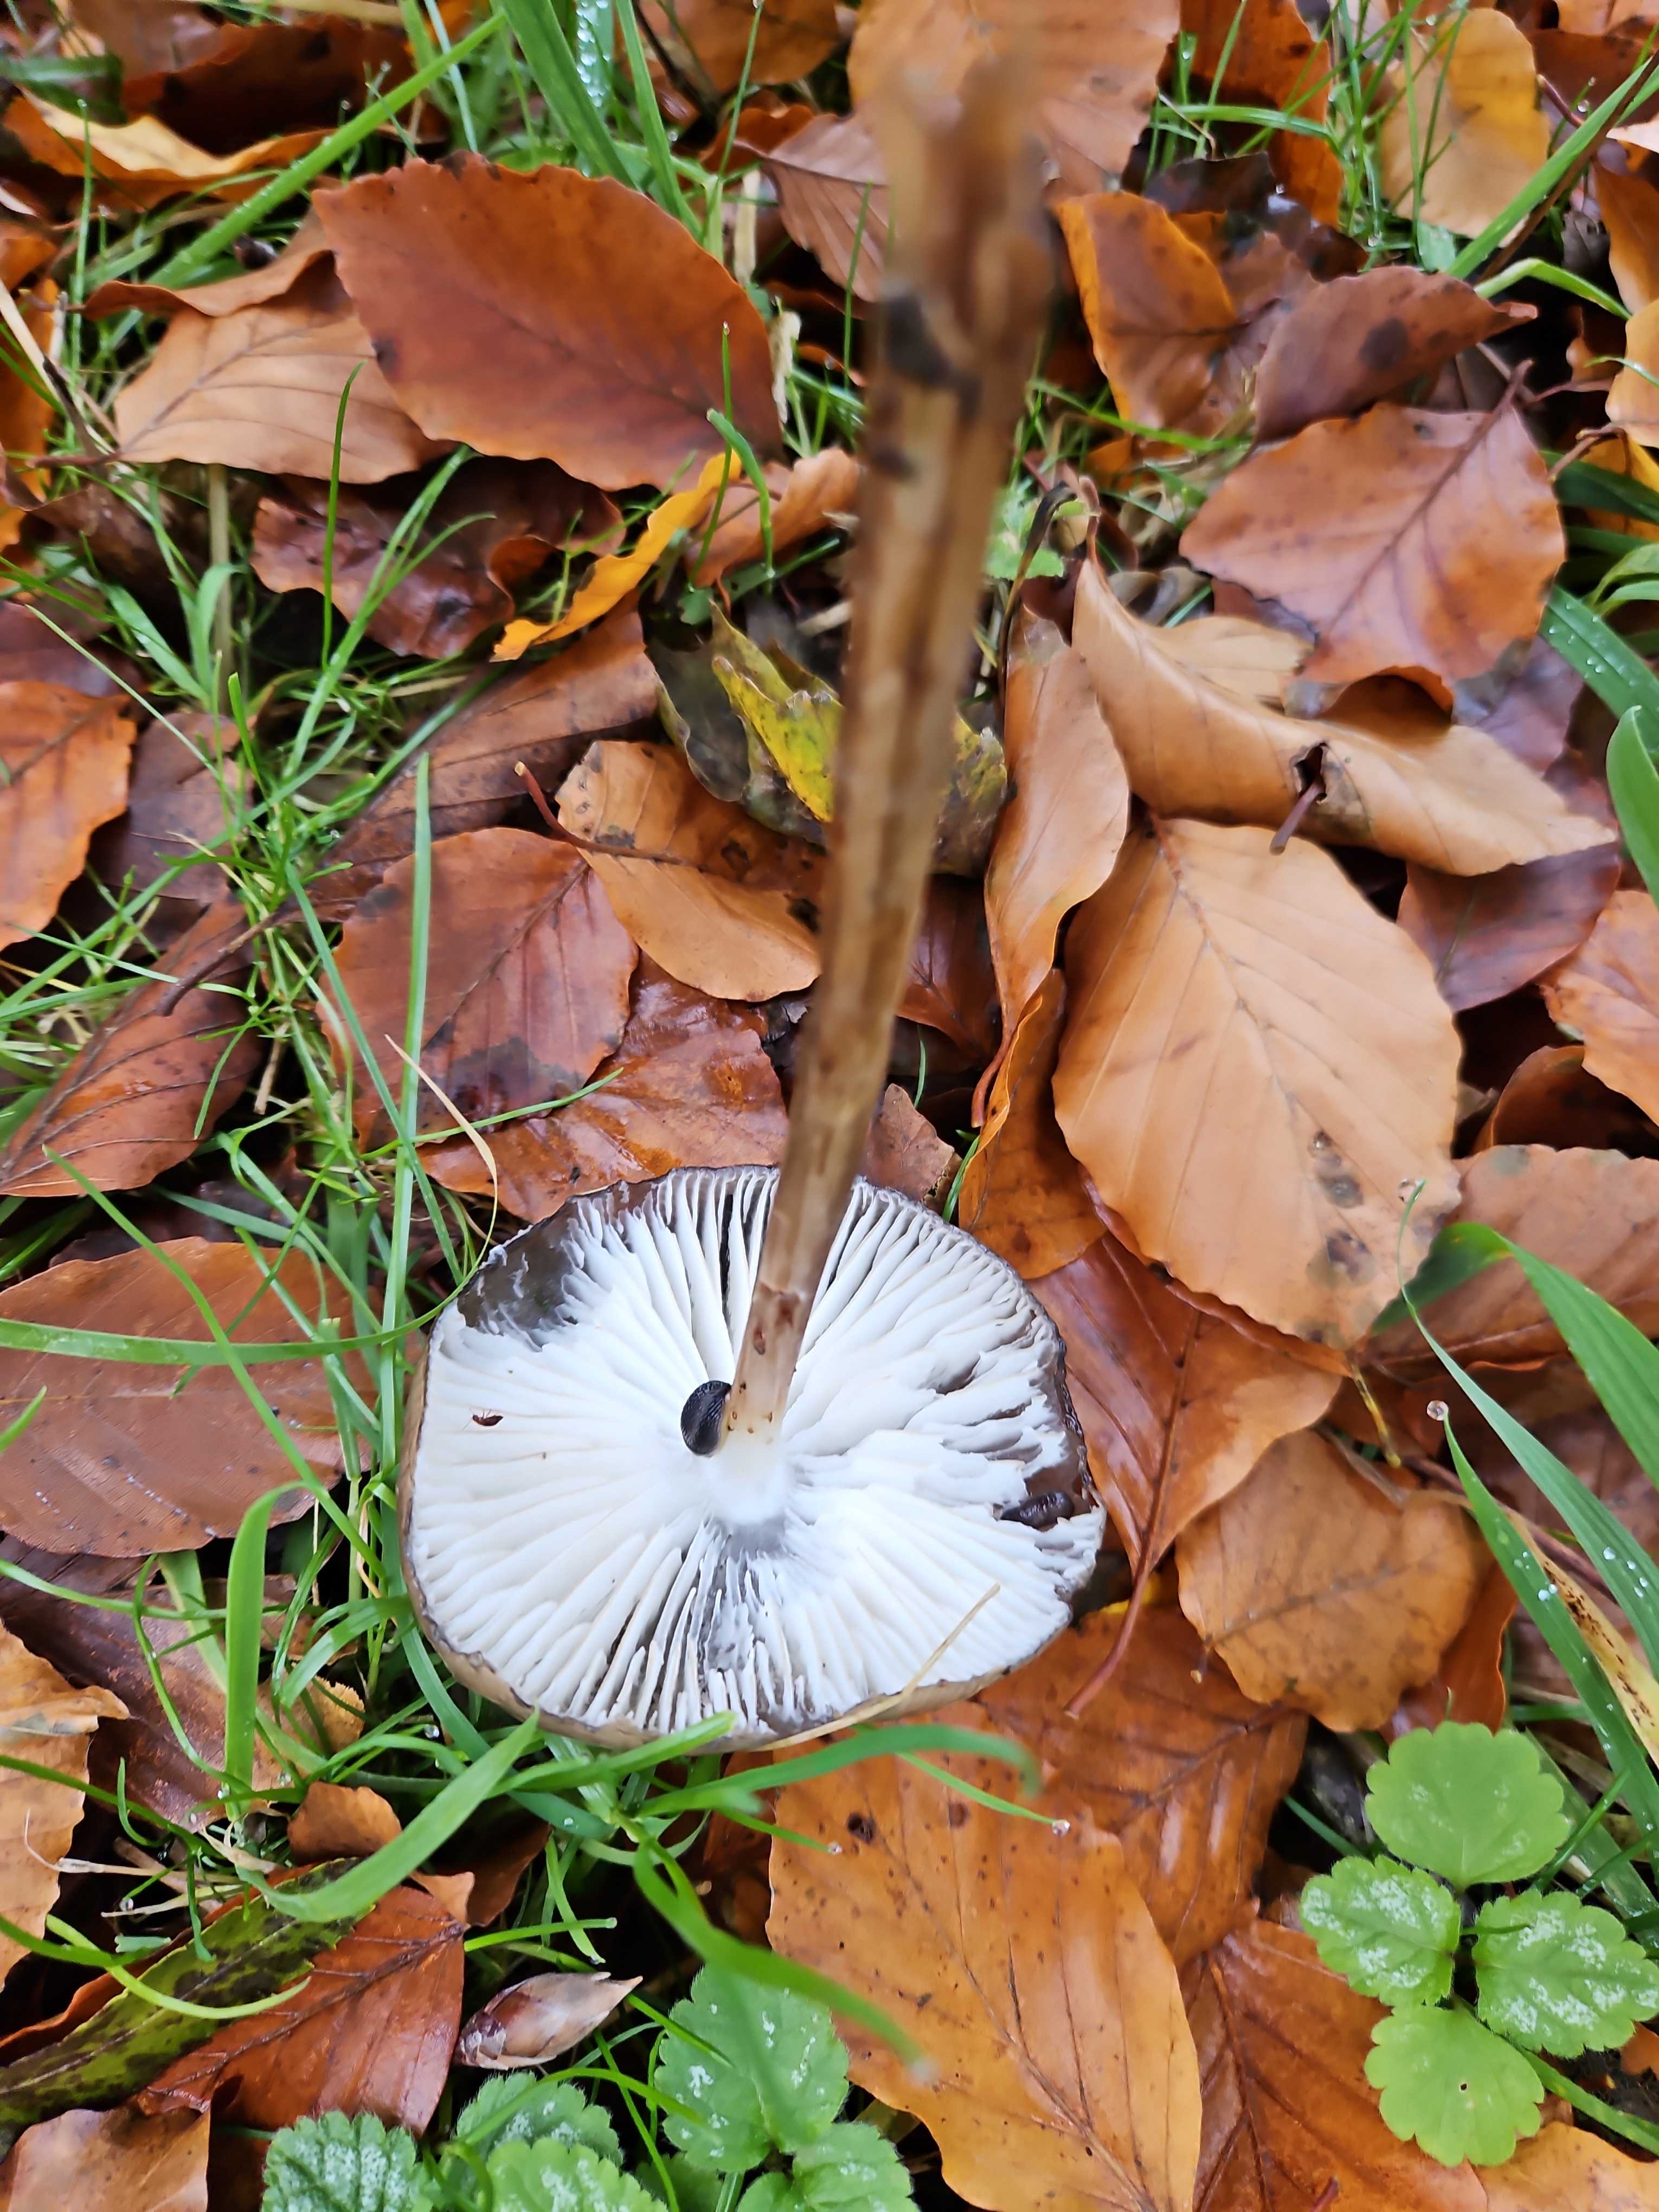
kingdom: Fungi
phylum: Basidiomycota
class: Agaricomycetes
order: Agaricales
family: Physalacriaceae
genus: Hymenopellis
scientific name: Hymenopellis radicata
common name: almindelig pælerodshat
